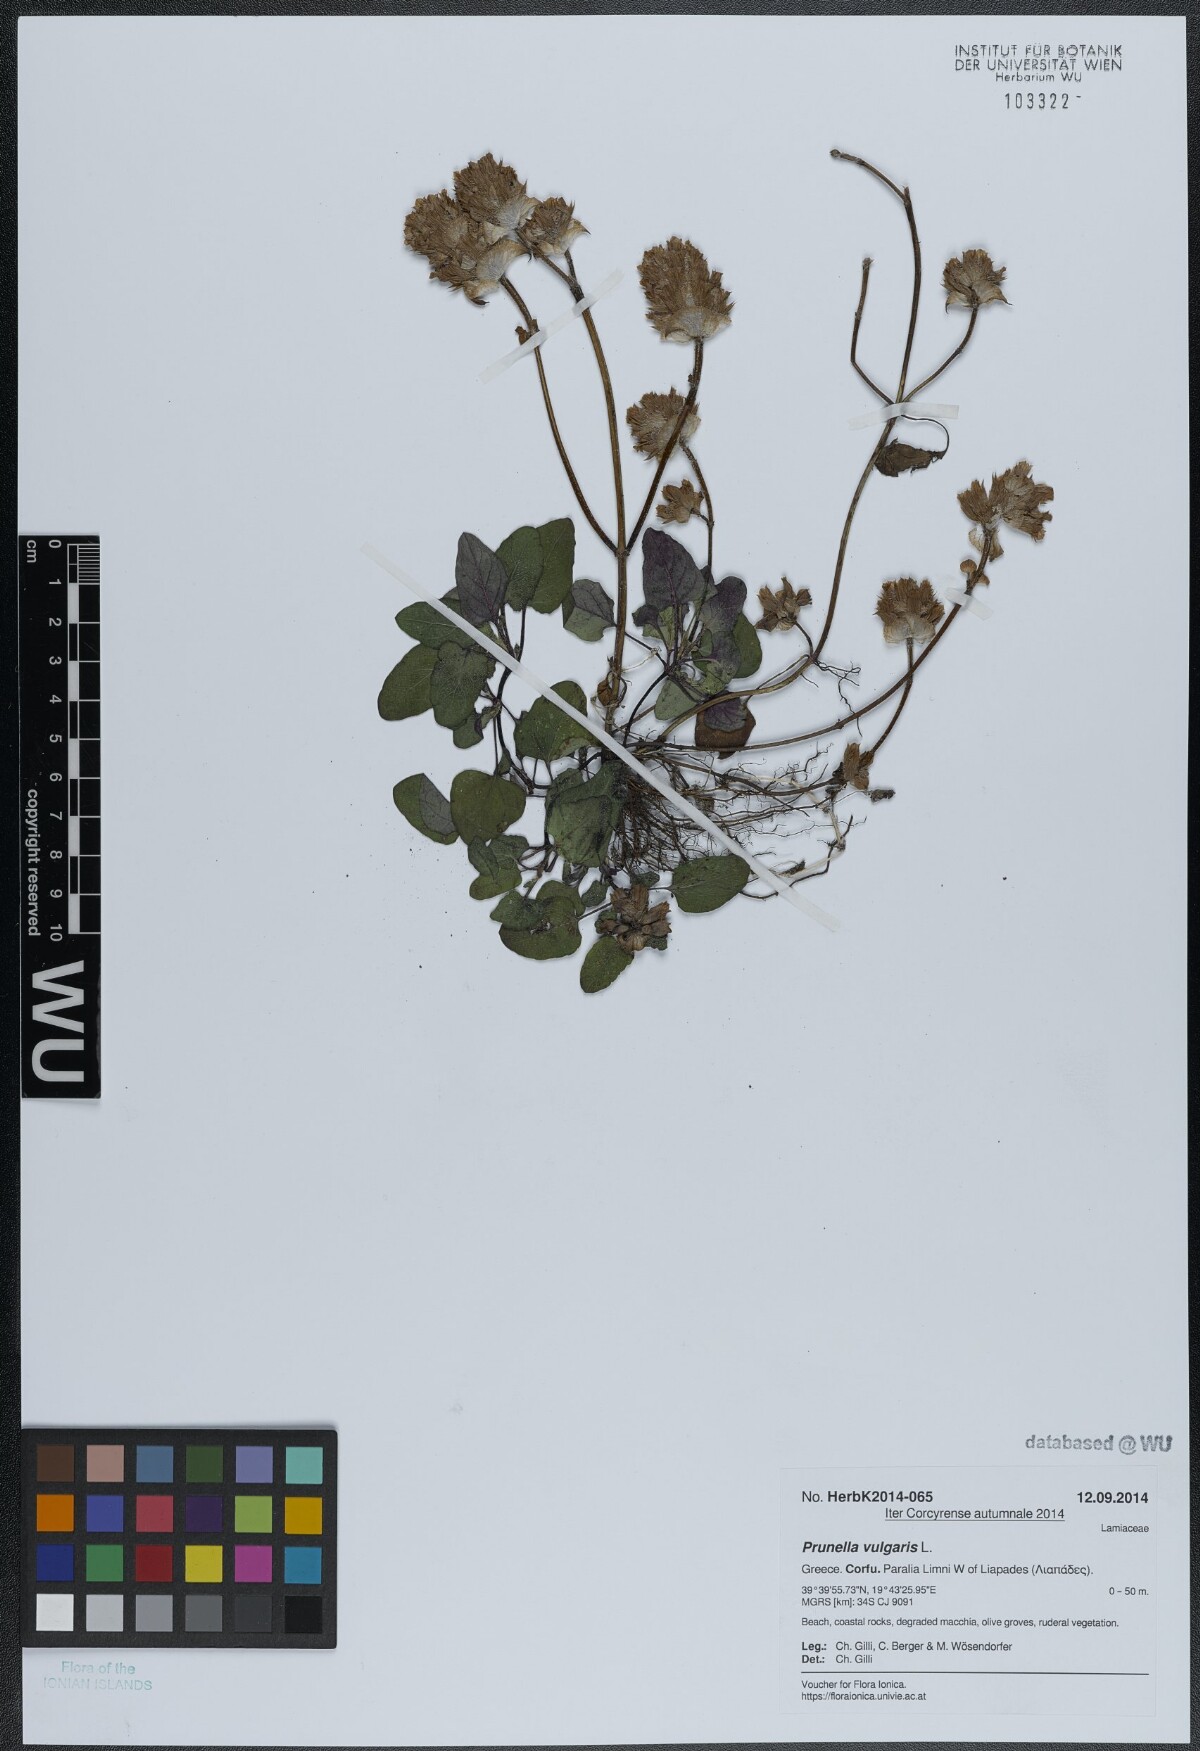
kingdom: Plantae
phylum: Tracheophyta
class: Magnoliopsida
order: Lamiales
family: Lamiaceae
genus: Prunella
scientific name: Prunella vulgaris
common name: Heal-all
